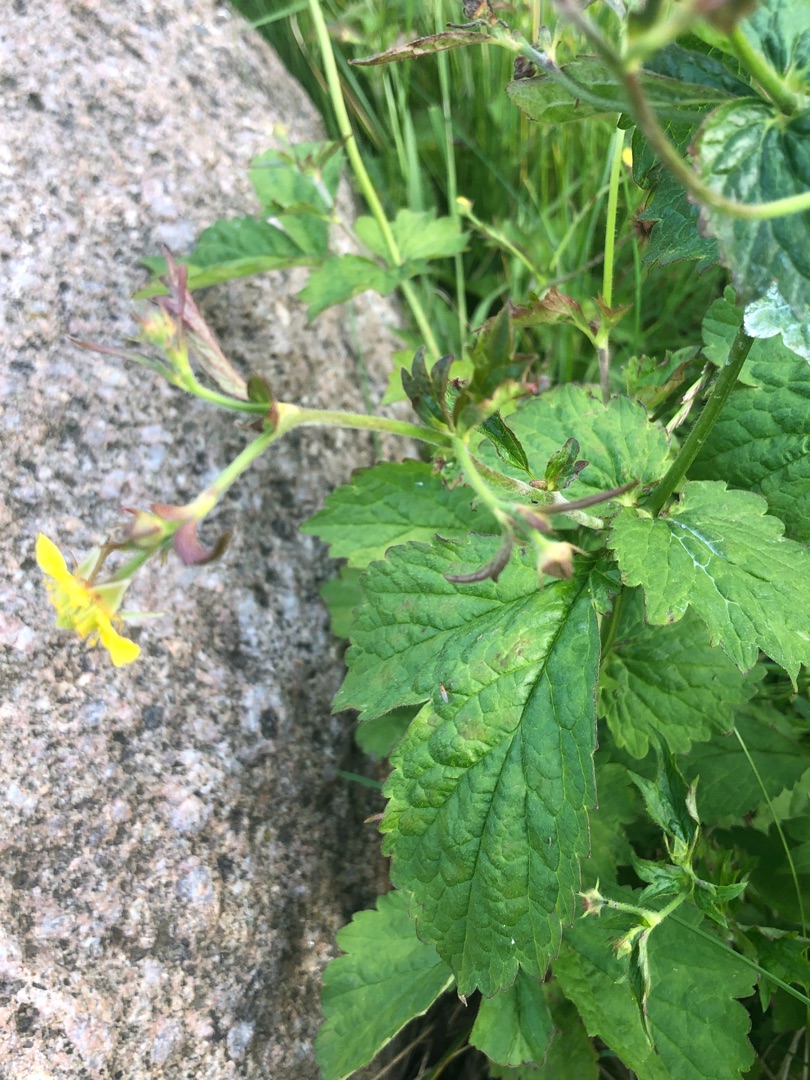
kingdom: Plantae
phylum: Tracheophyta
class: Magnoliopsida
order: Rosales
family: Rosaceae
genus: Geum
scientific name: Geum urbanum
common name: Feber-nellikerod
